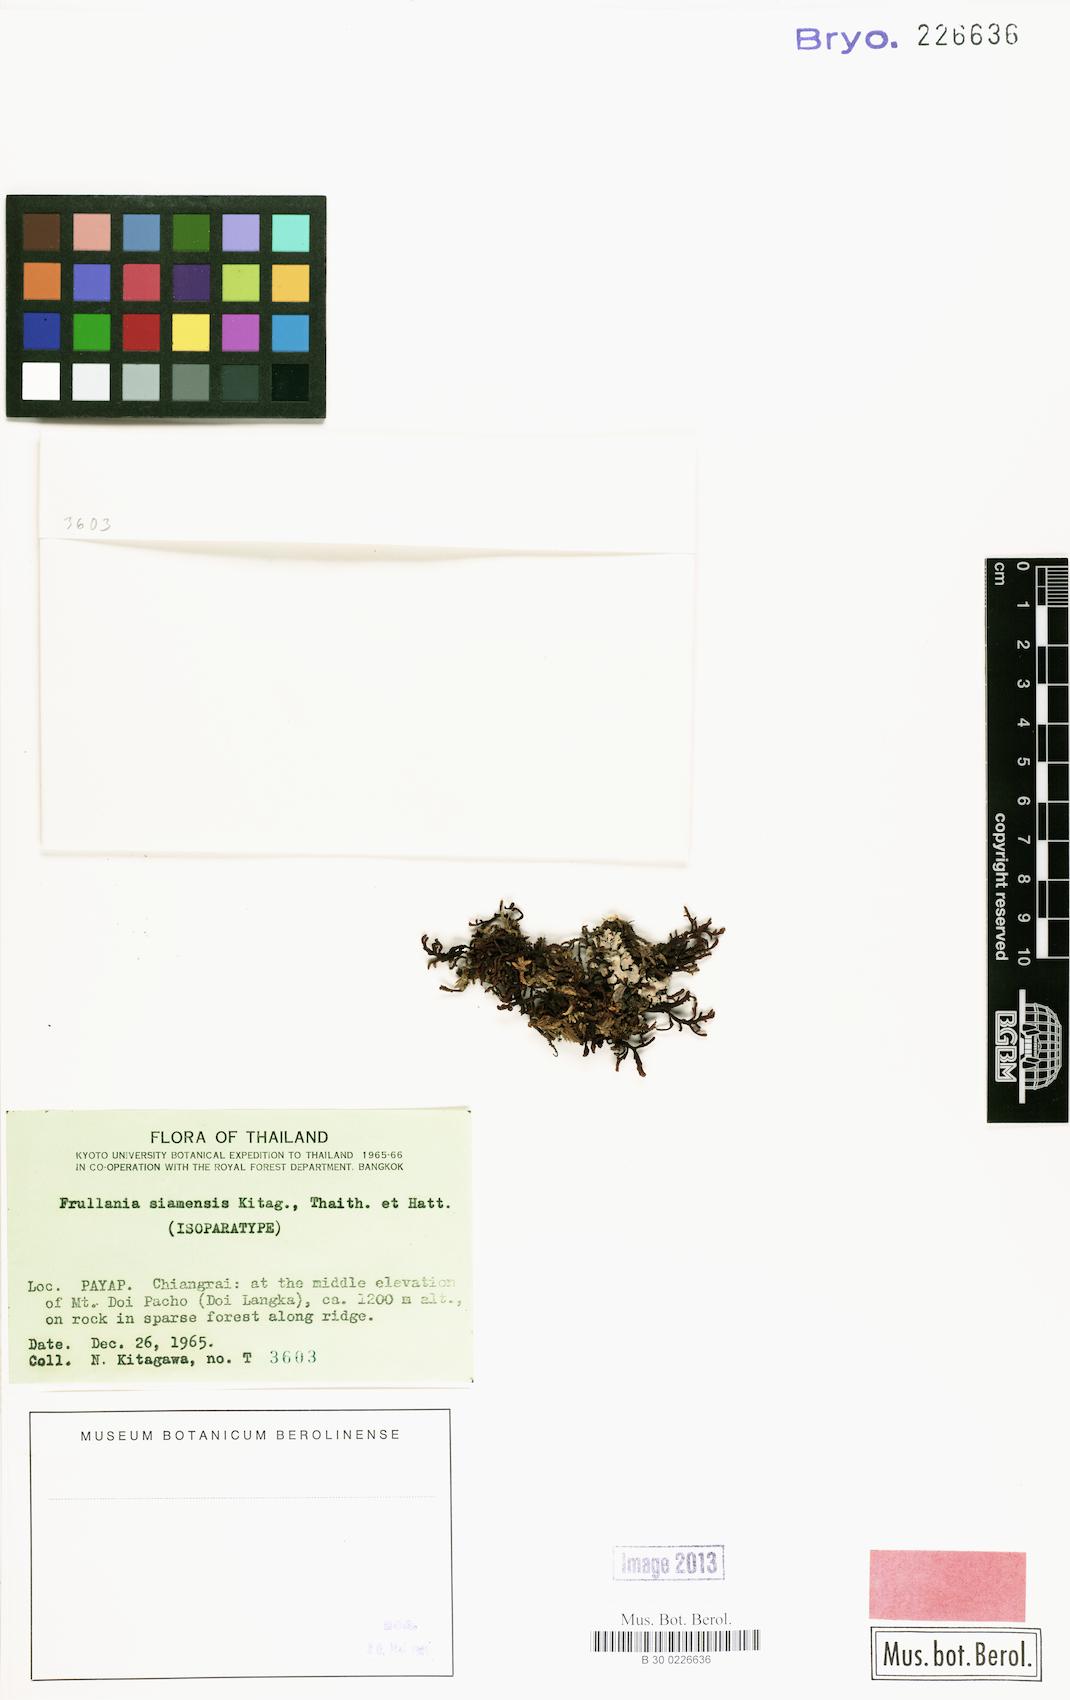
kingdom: Plantae
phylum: Marchantiophyta
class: Jungermanniopsida
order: Porellales
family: Frullaniaceae
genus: Frullania
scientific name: Frullania yuennanensis
